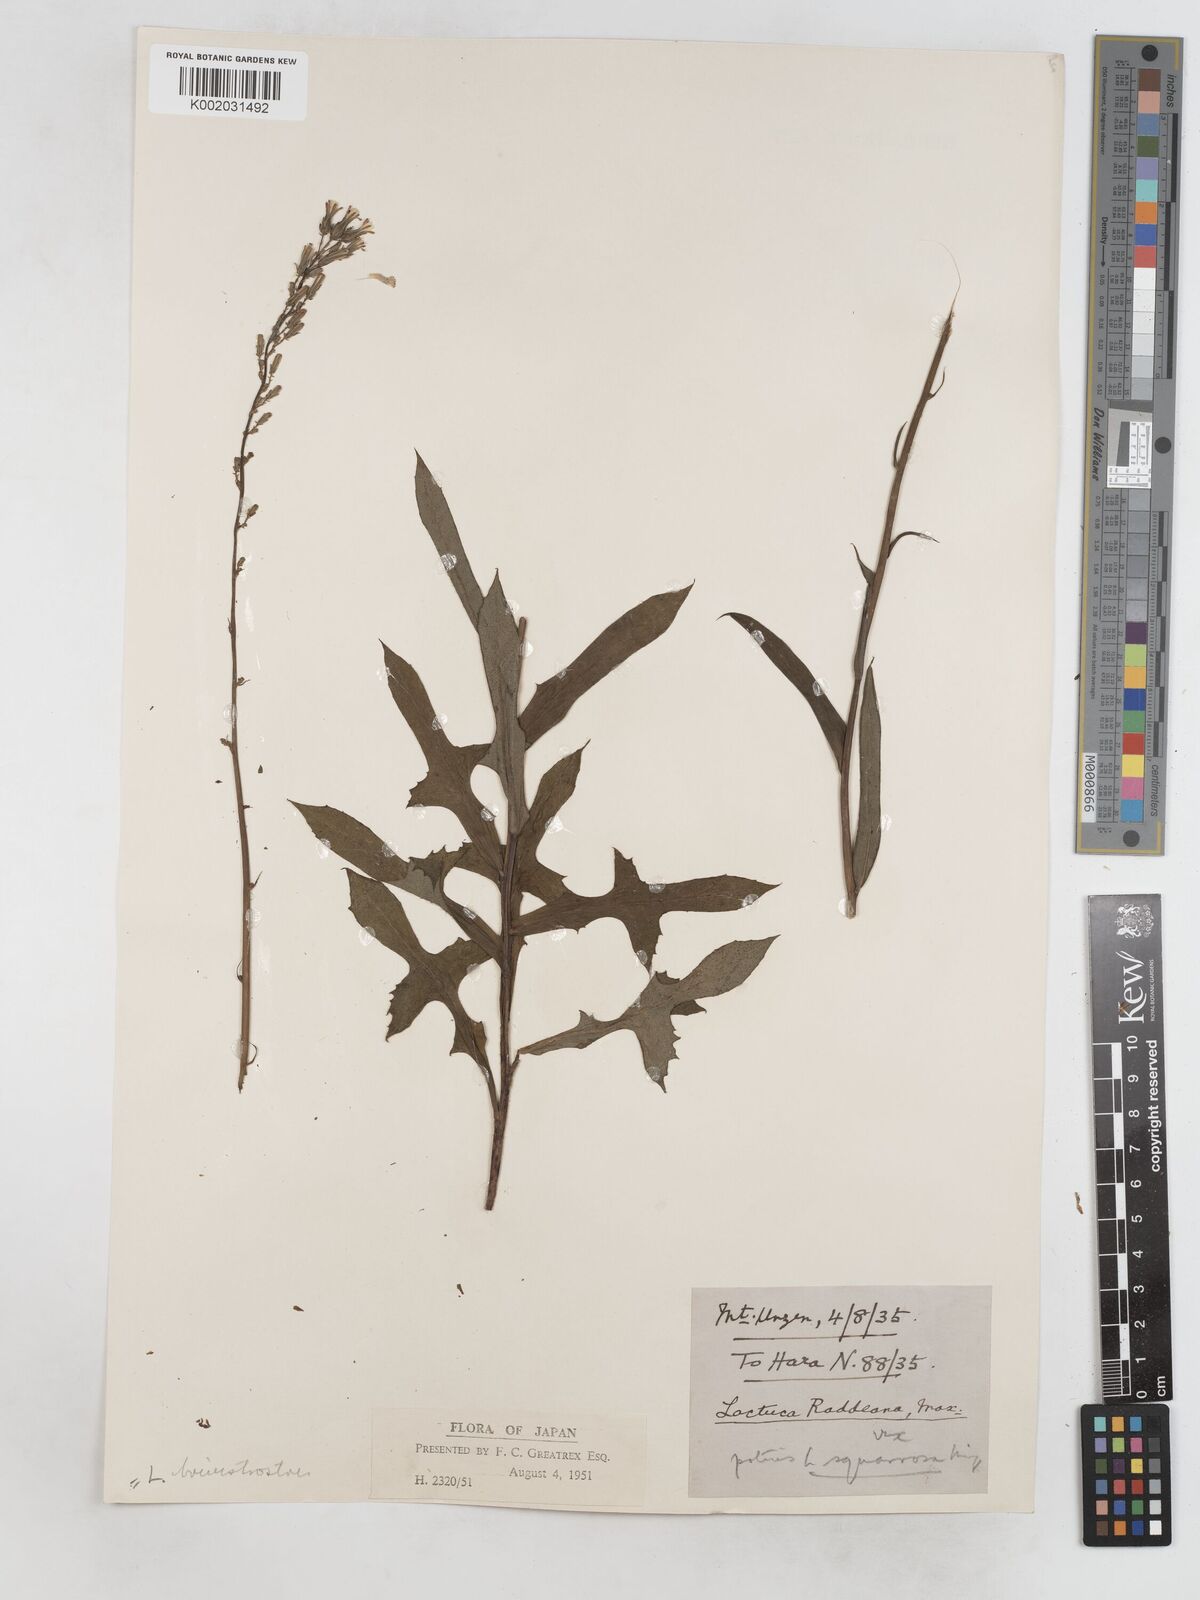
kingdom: Plantae
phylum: Tracheophyta
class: Magnoliopsida
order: Asterales
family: Asteraceae
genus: Lactuca
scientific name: Lactuca indica
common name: Wild lettuce
